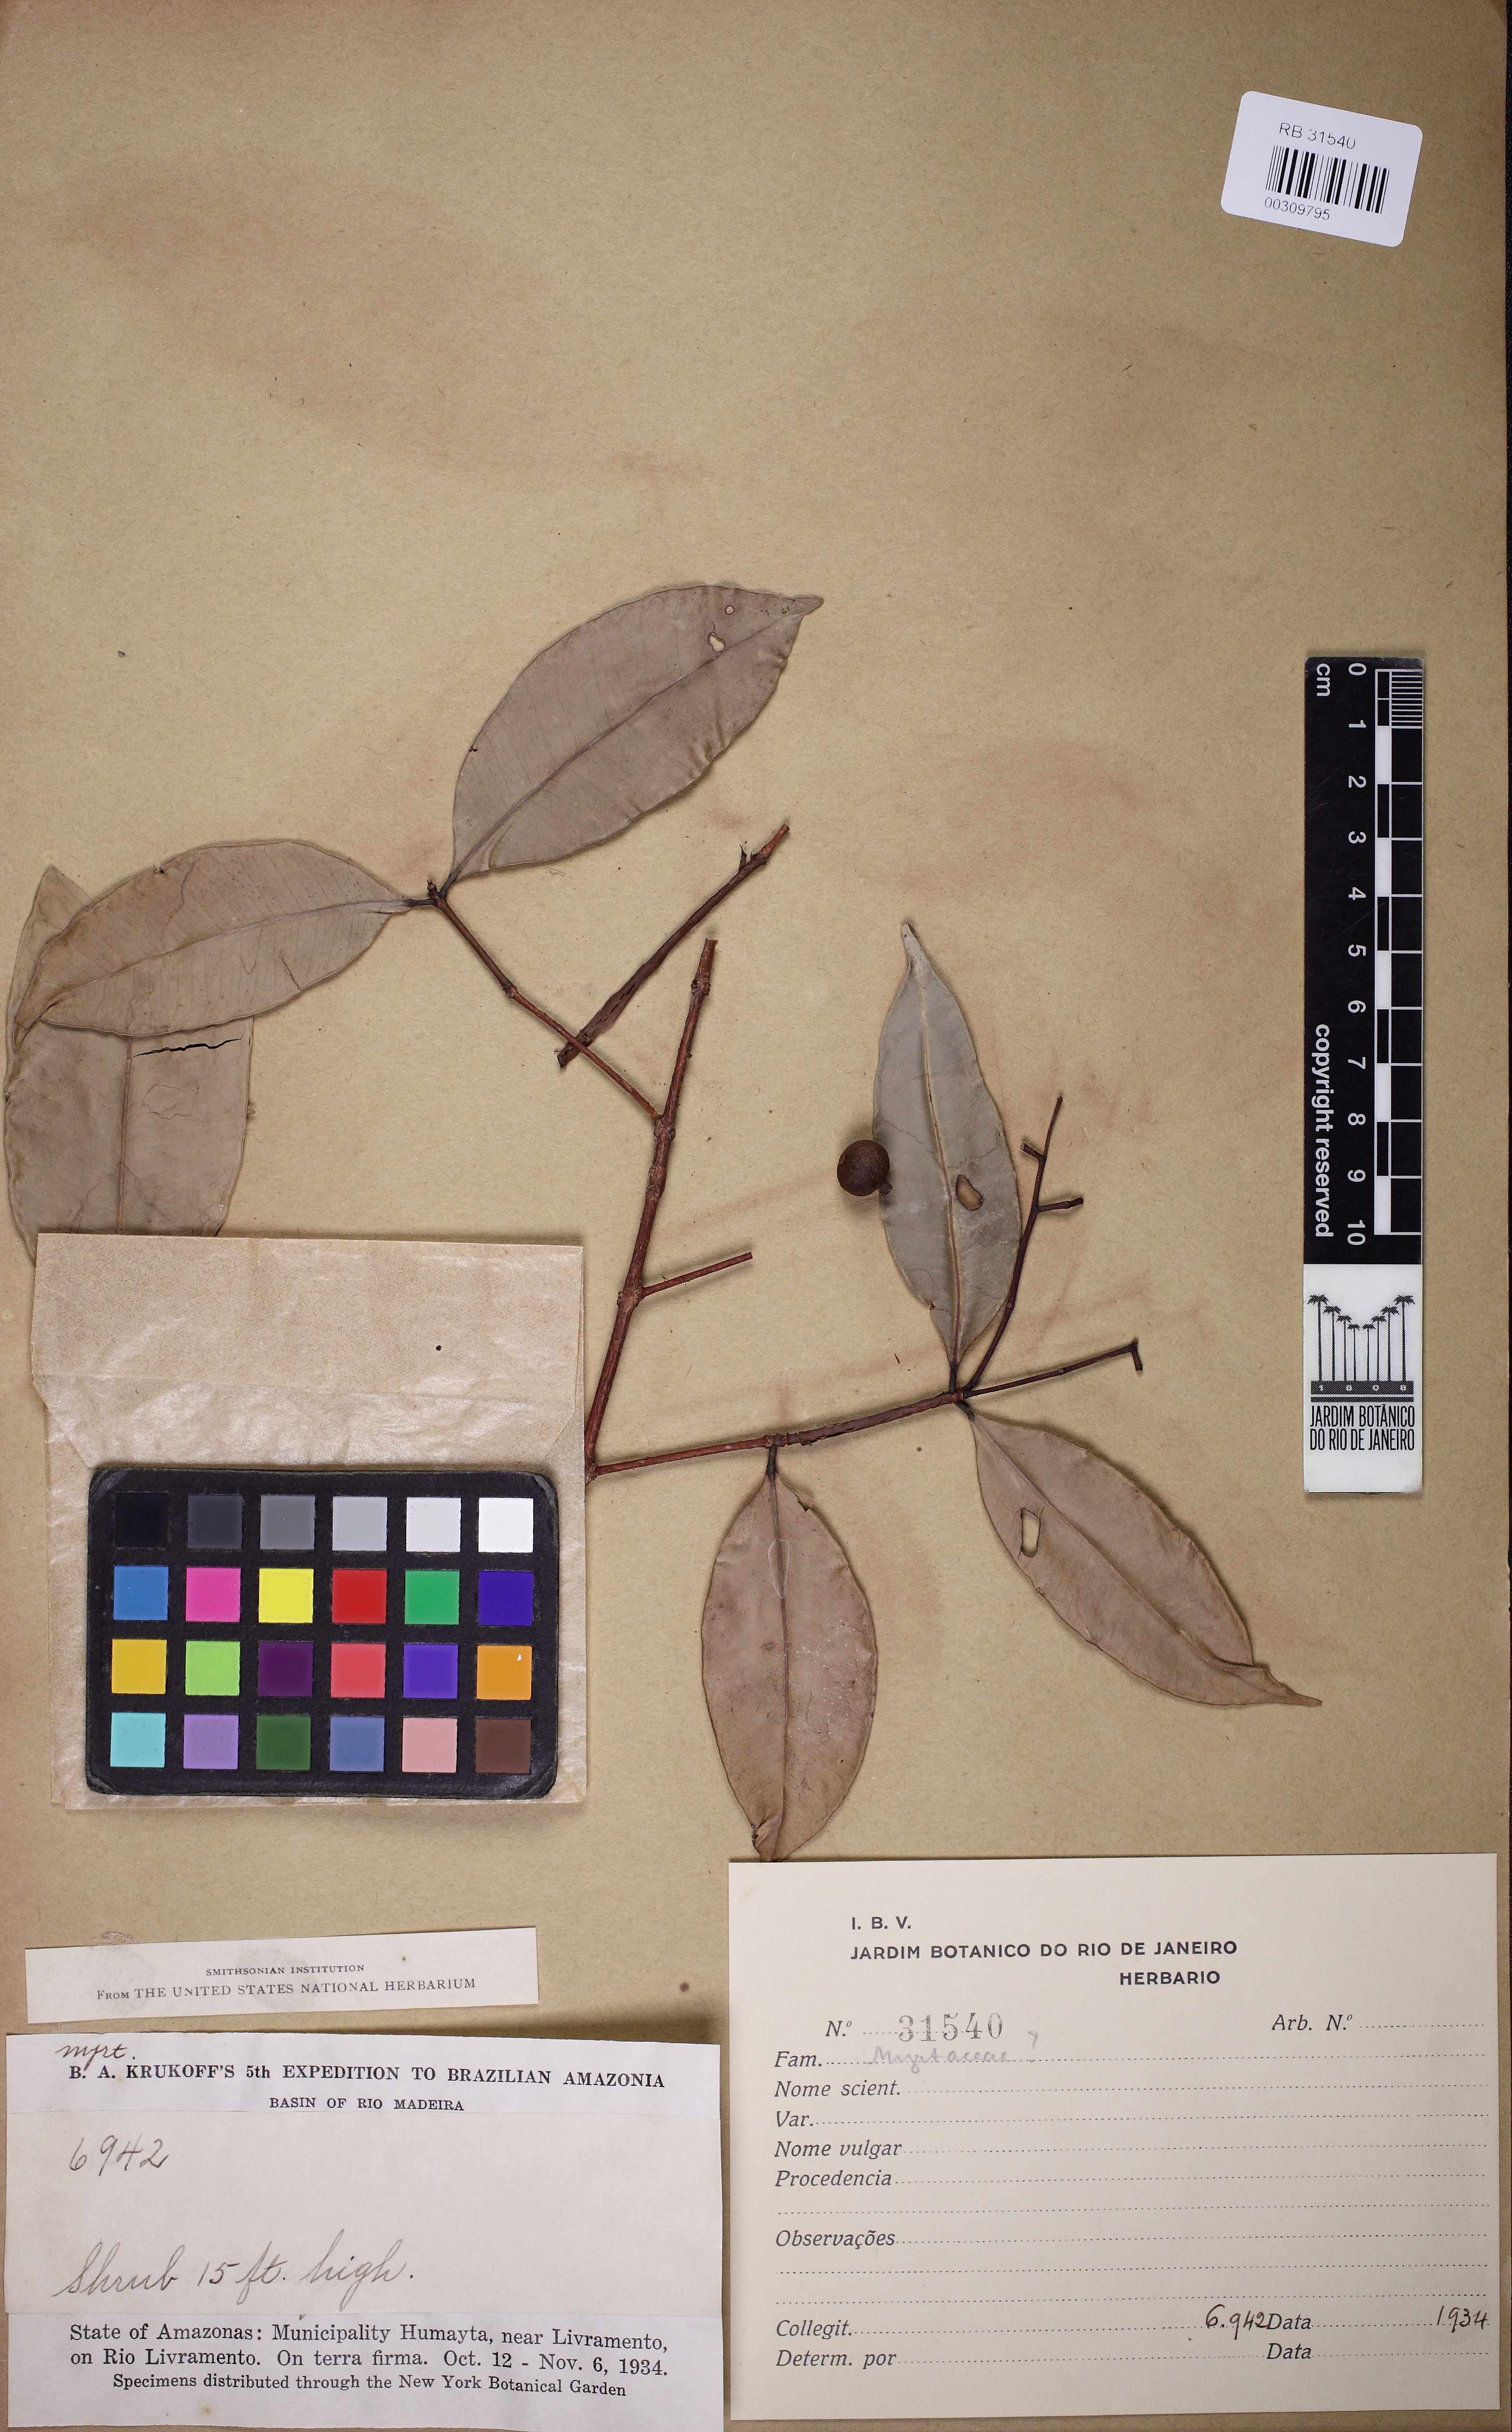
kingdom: Plantae
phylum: Tracheophyta
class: Magnoliopsida
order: Myrtales
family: Myrtaceae
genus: Myrcia
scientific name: Myrcia forsteri
